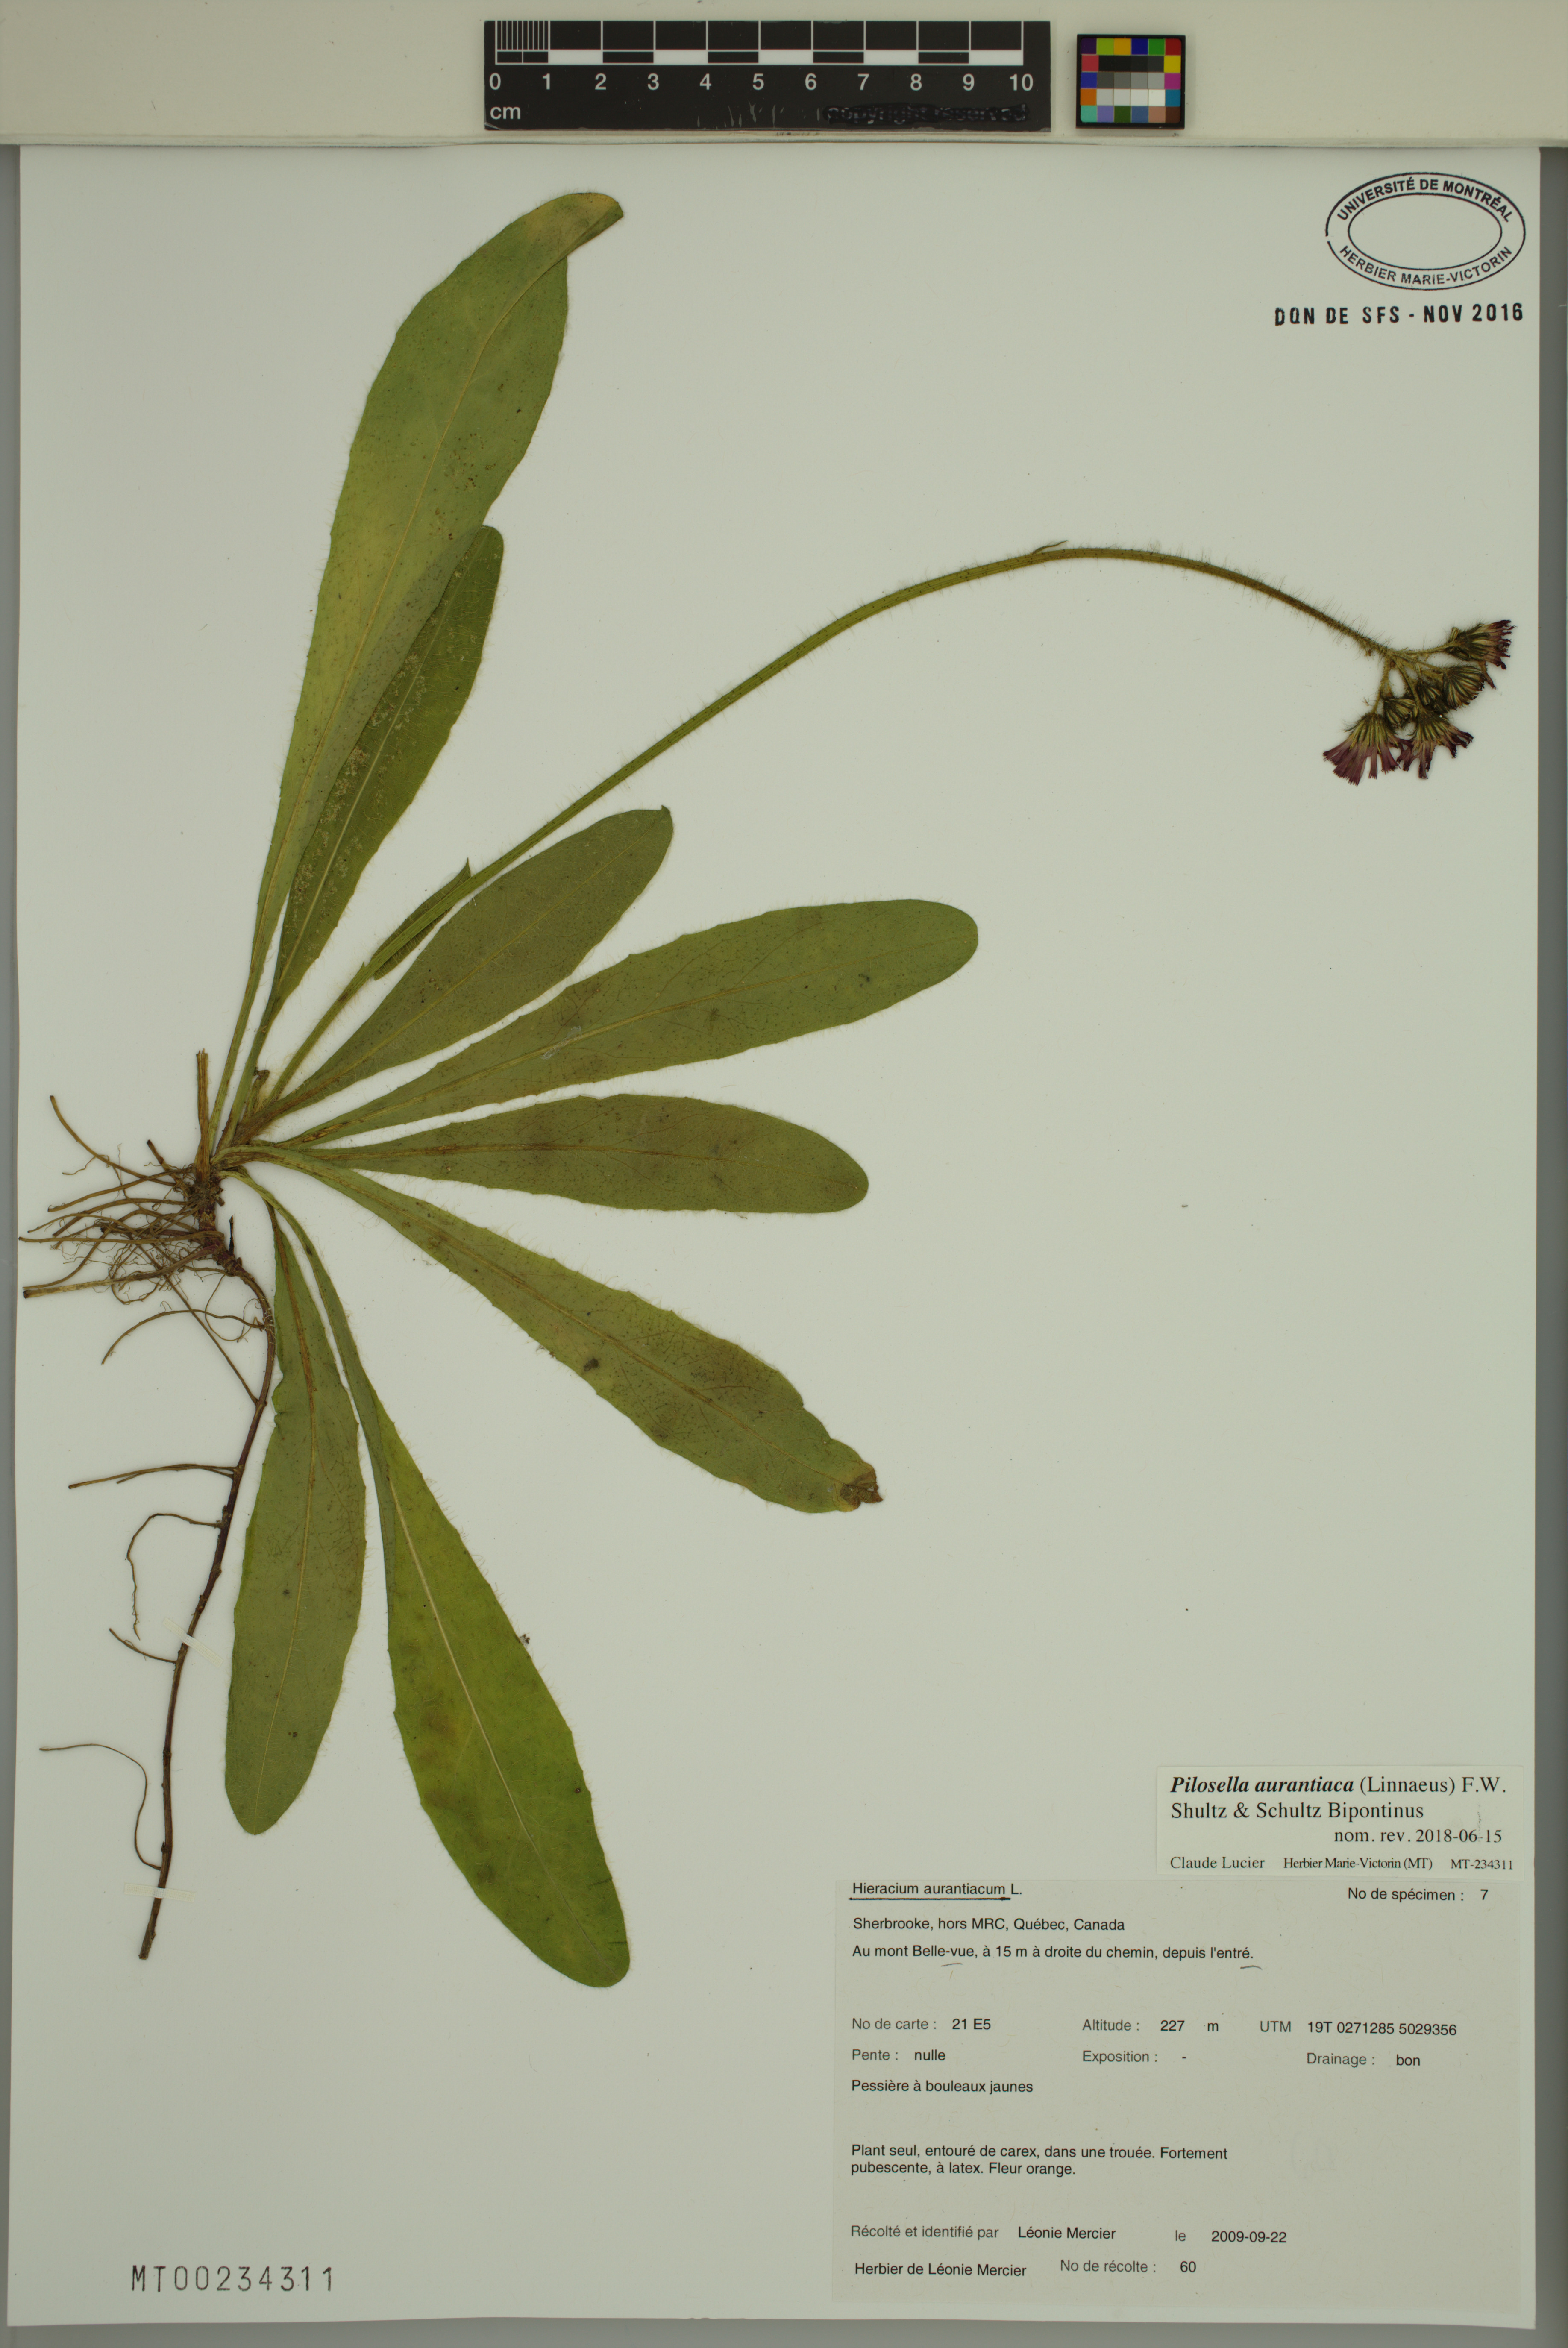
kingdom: Plantae
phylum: Tracheophyta
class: Magnoliopsida
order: Asterales
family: Asteraceae
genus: Pilosella
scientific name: Pilosella aurantiaca
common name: Fox-and-cubs
